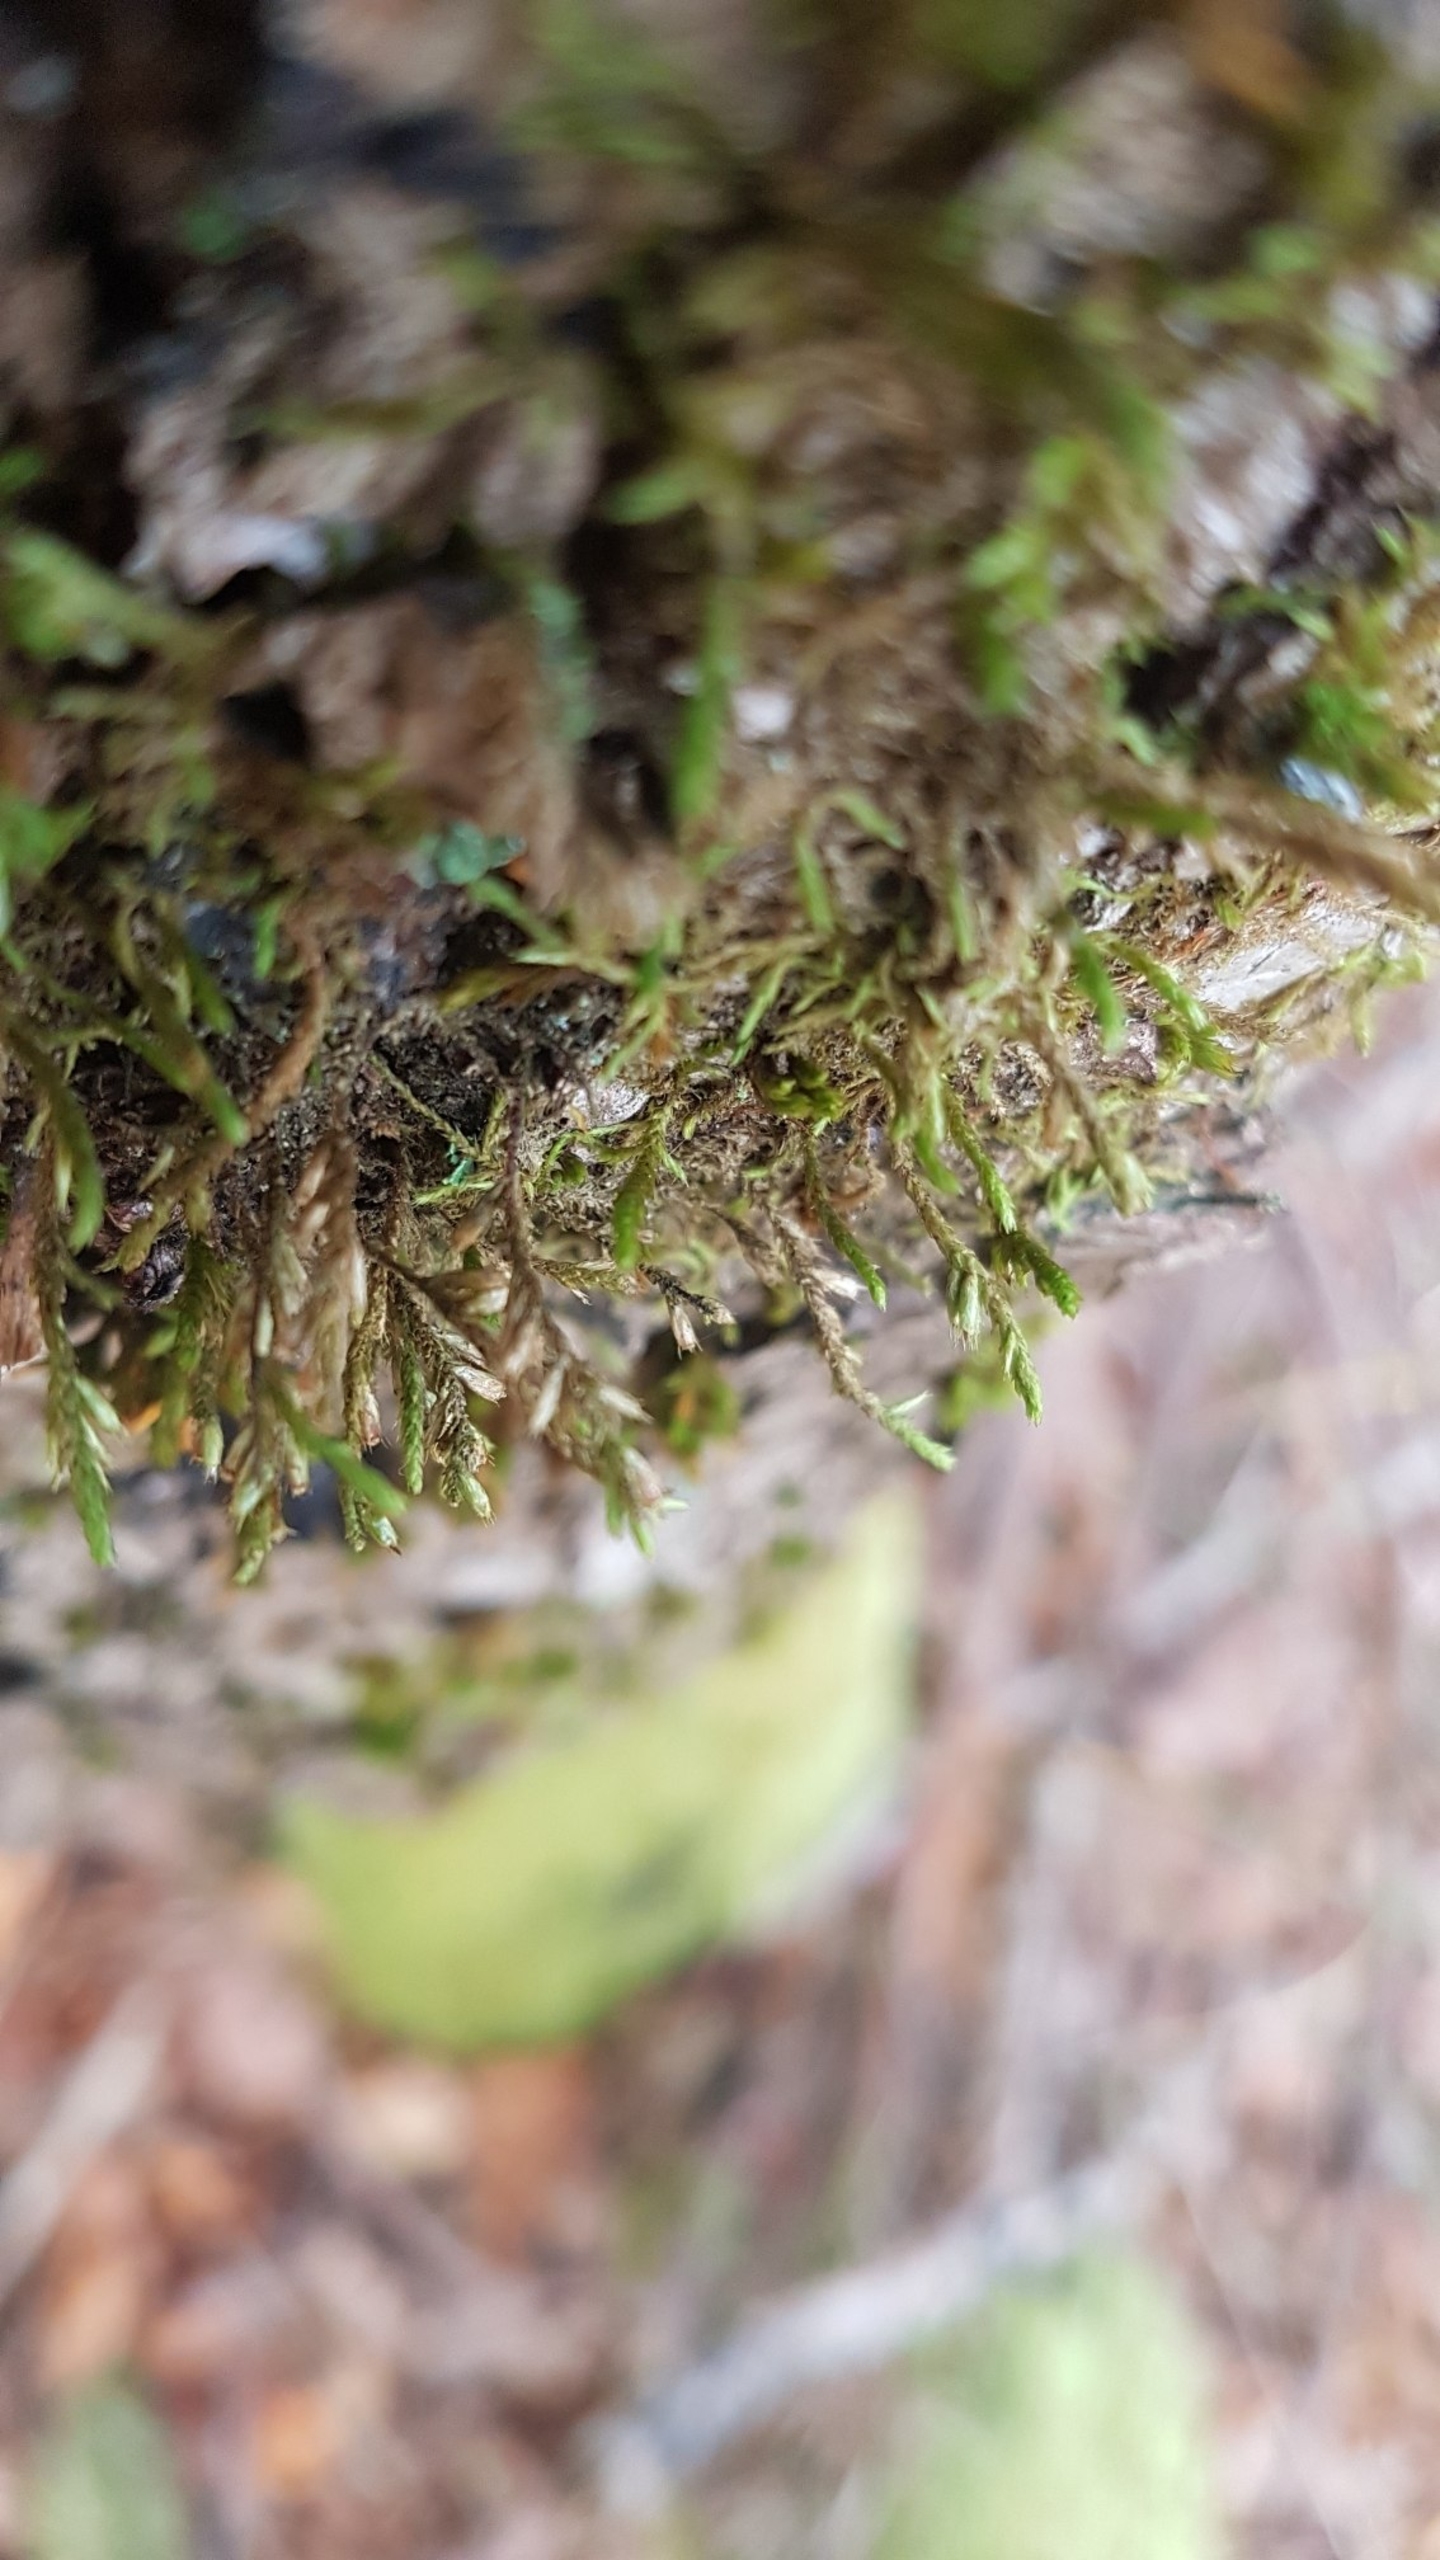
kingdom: Plantae
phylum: Bryophyta
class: Bryopsida
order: Hypnales
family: Cryphaeaceae
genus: Cryphaea
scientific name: Cryphaea heteromalla
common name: Bark-dækmos
